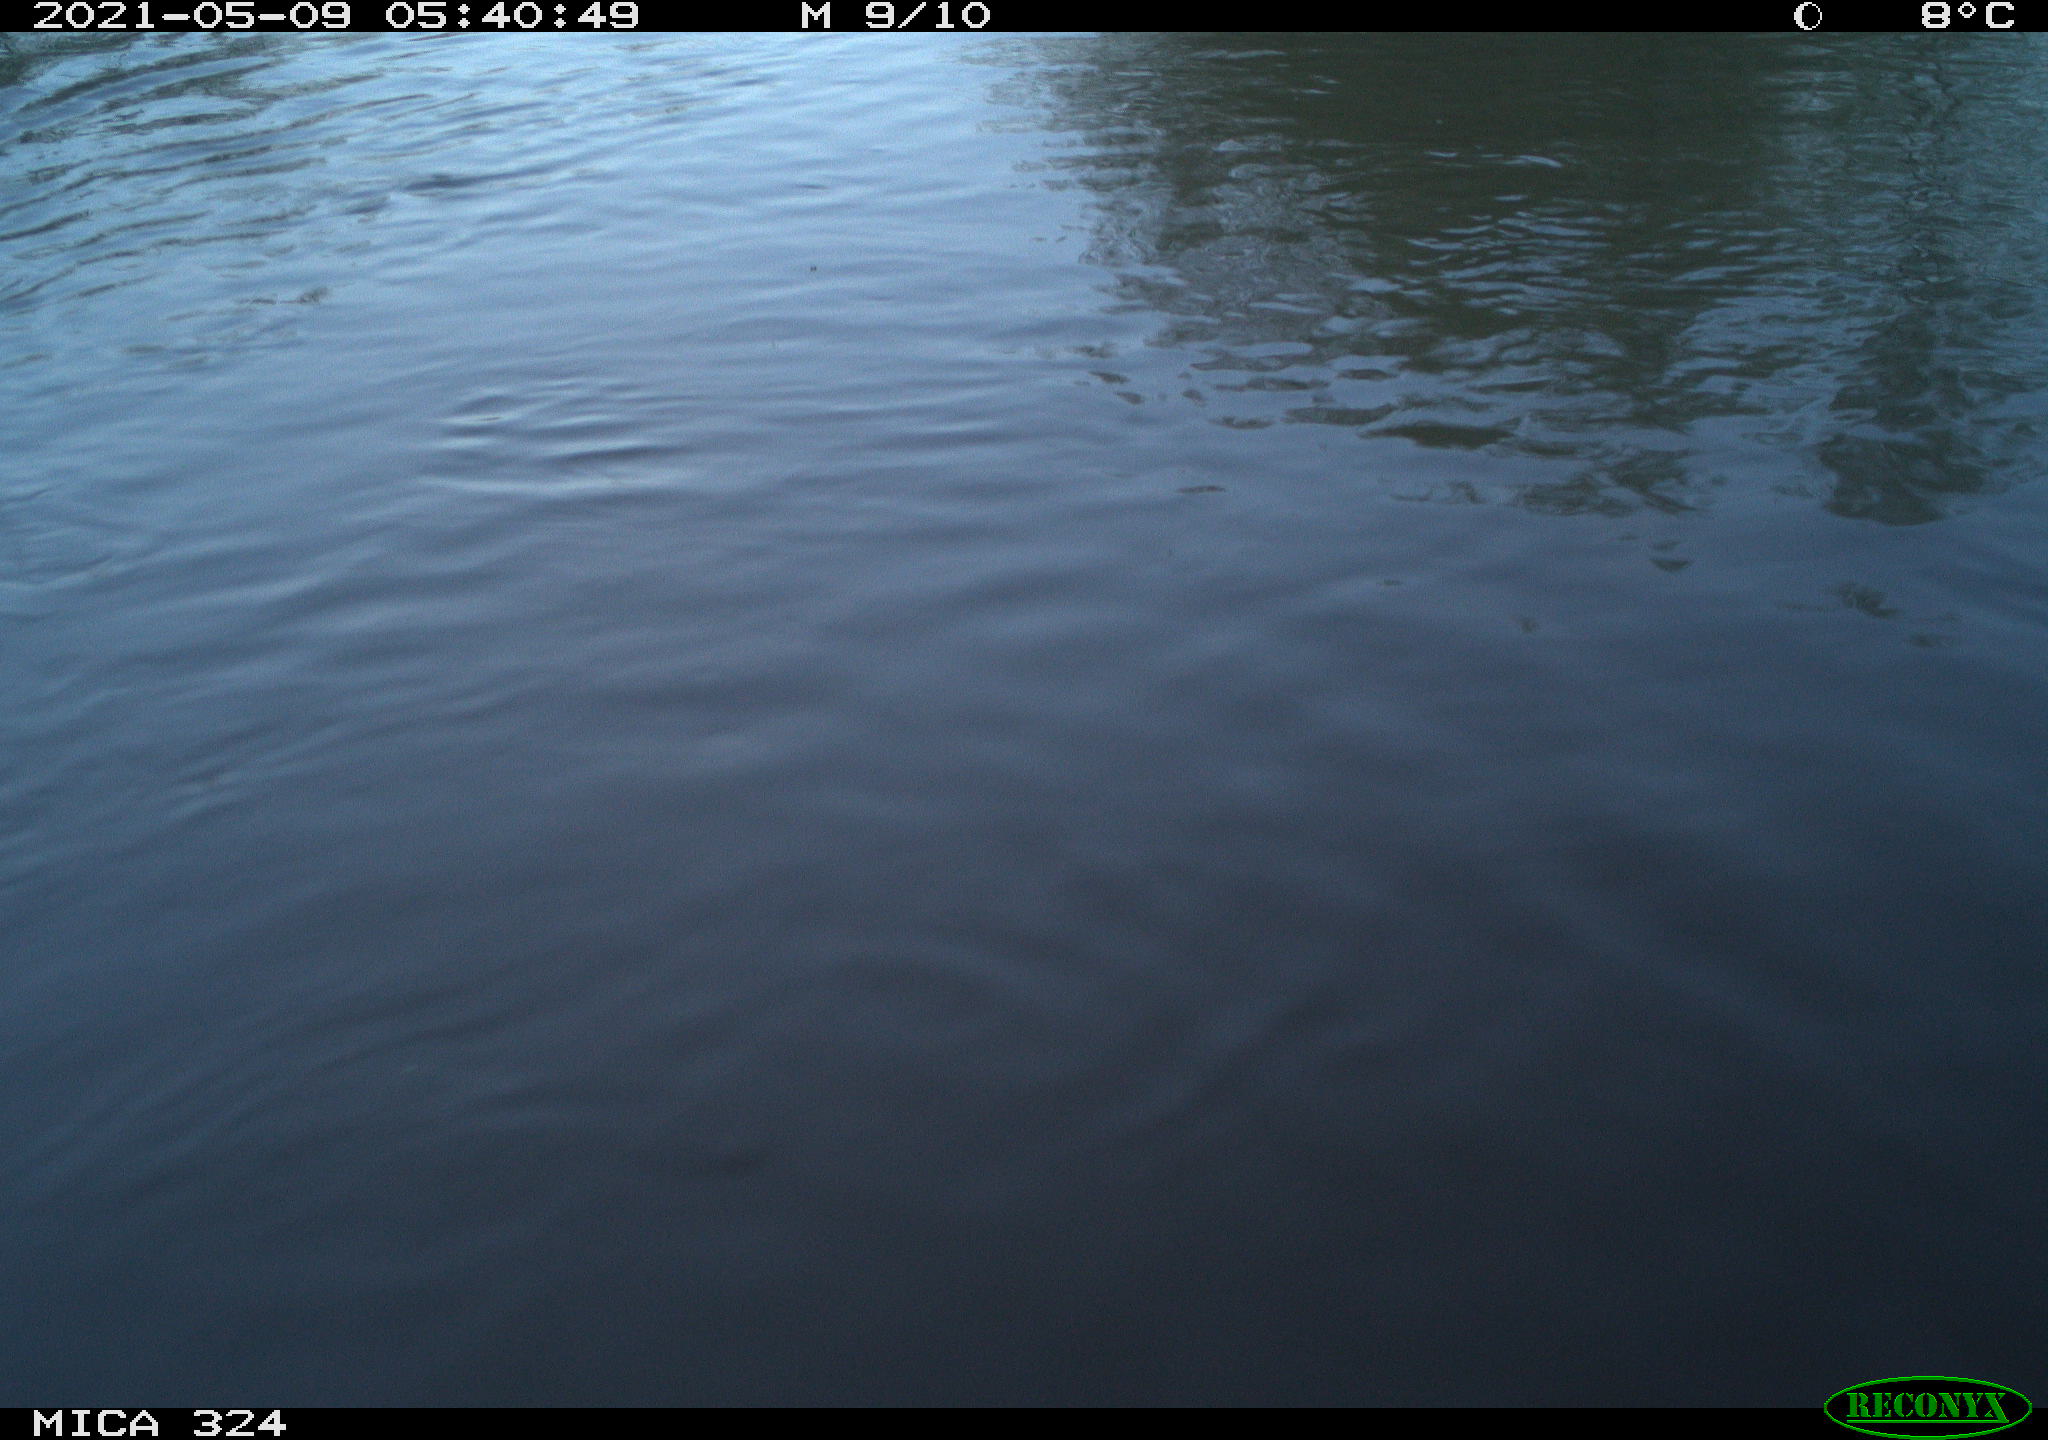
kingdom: Animalia
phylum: Chordata
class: Aves
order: Anseriformes
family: Anatidae
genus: Anas
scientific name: Anas platyrhynchos
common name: Mallard
